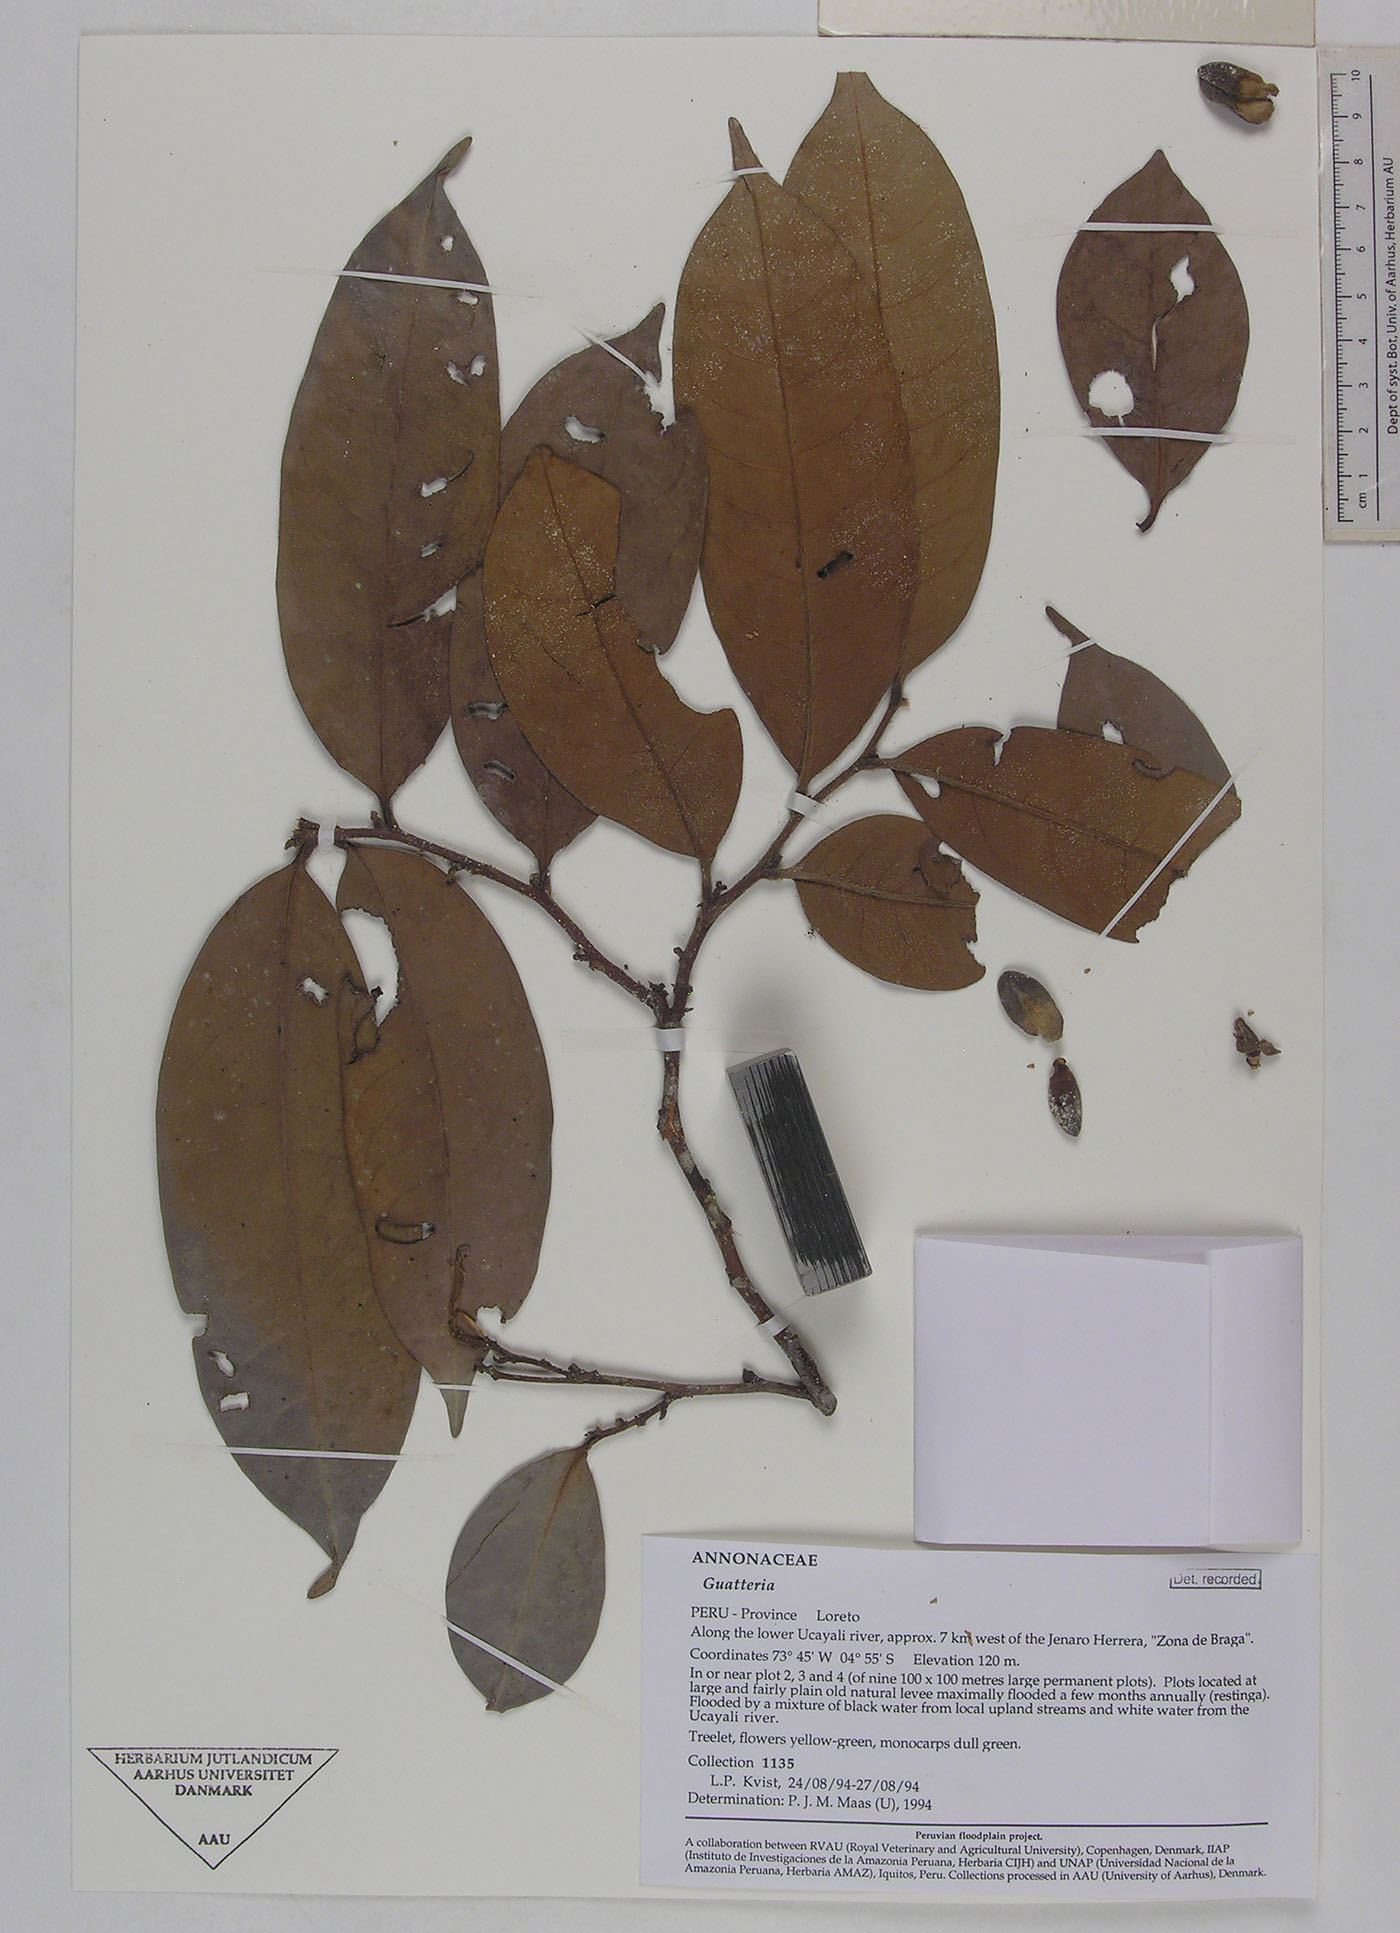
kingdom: Plantae
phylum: Tracheophyta
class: Magnoliopsida
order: Magnoliales
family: Annonaceae
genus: Guatteria
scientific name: Guatteria blepharophylla
